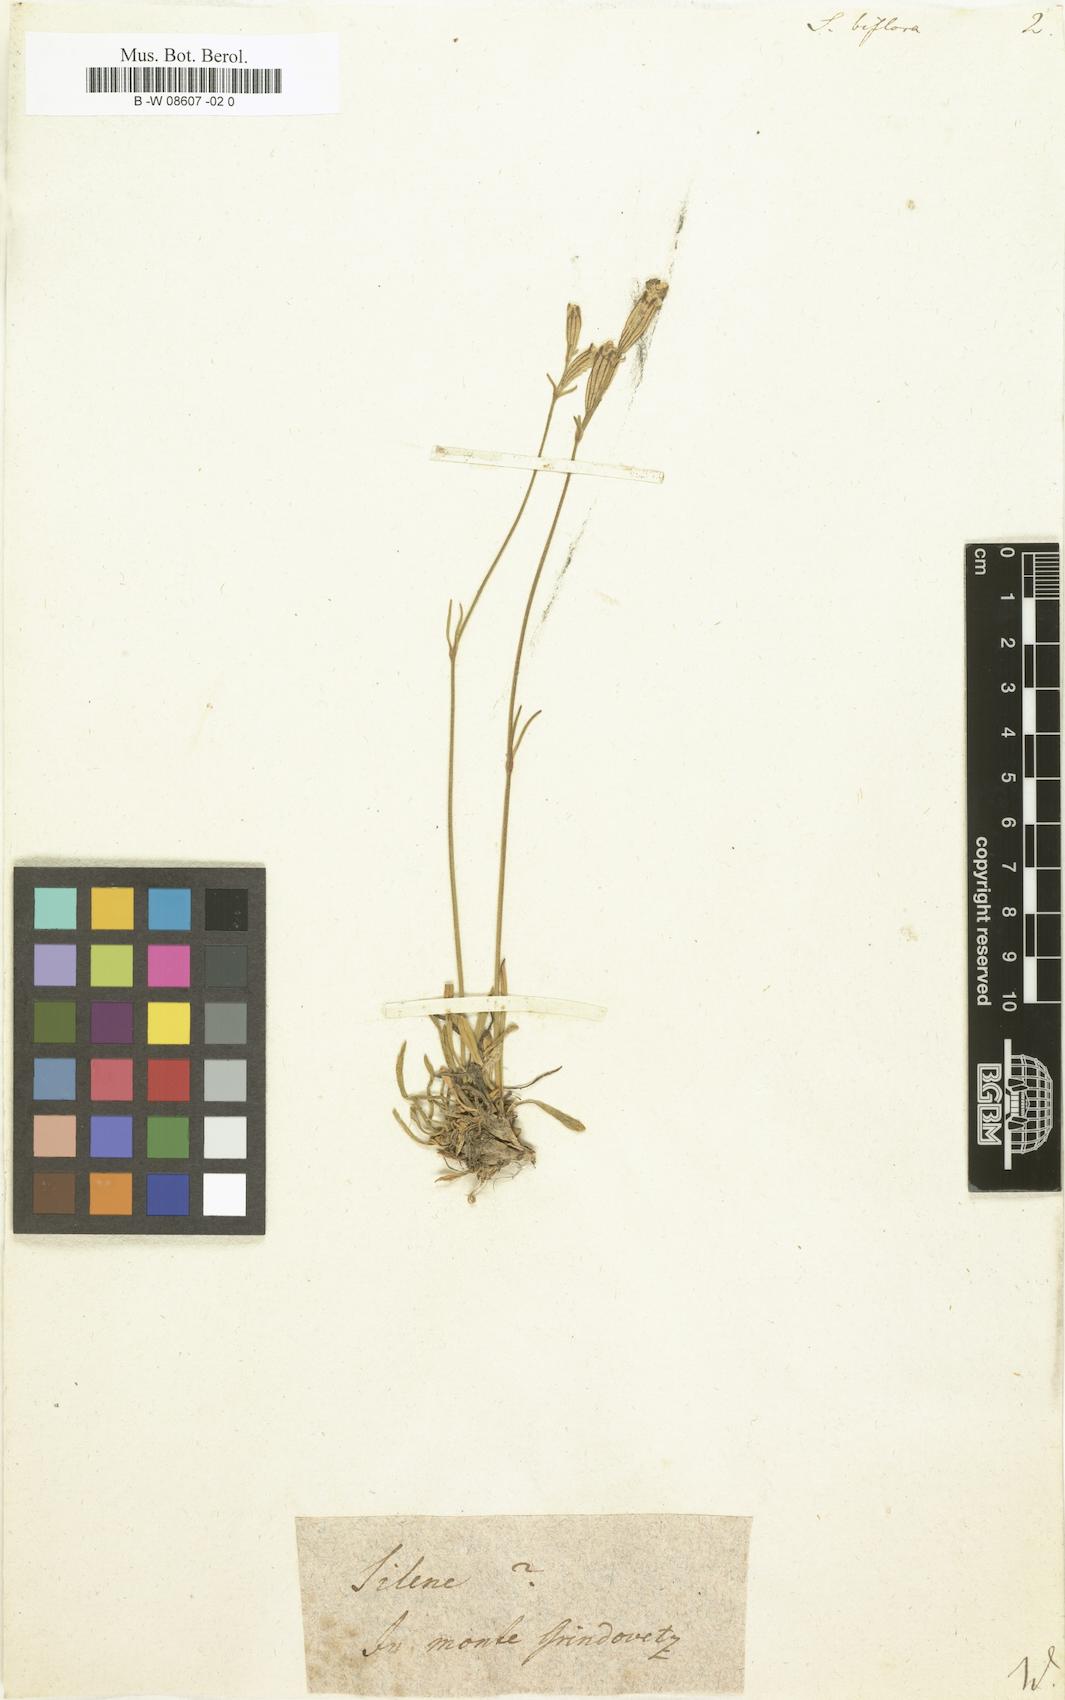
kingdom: Plantae
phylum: Tracheophyta
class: Magnoliopsida
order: Caryophyllales
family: Caryophyllaceae
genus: Silene
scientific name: Silene ciliata
